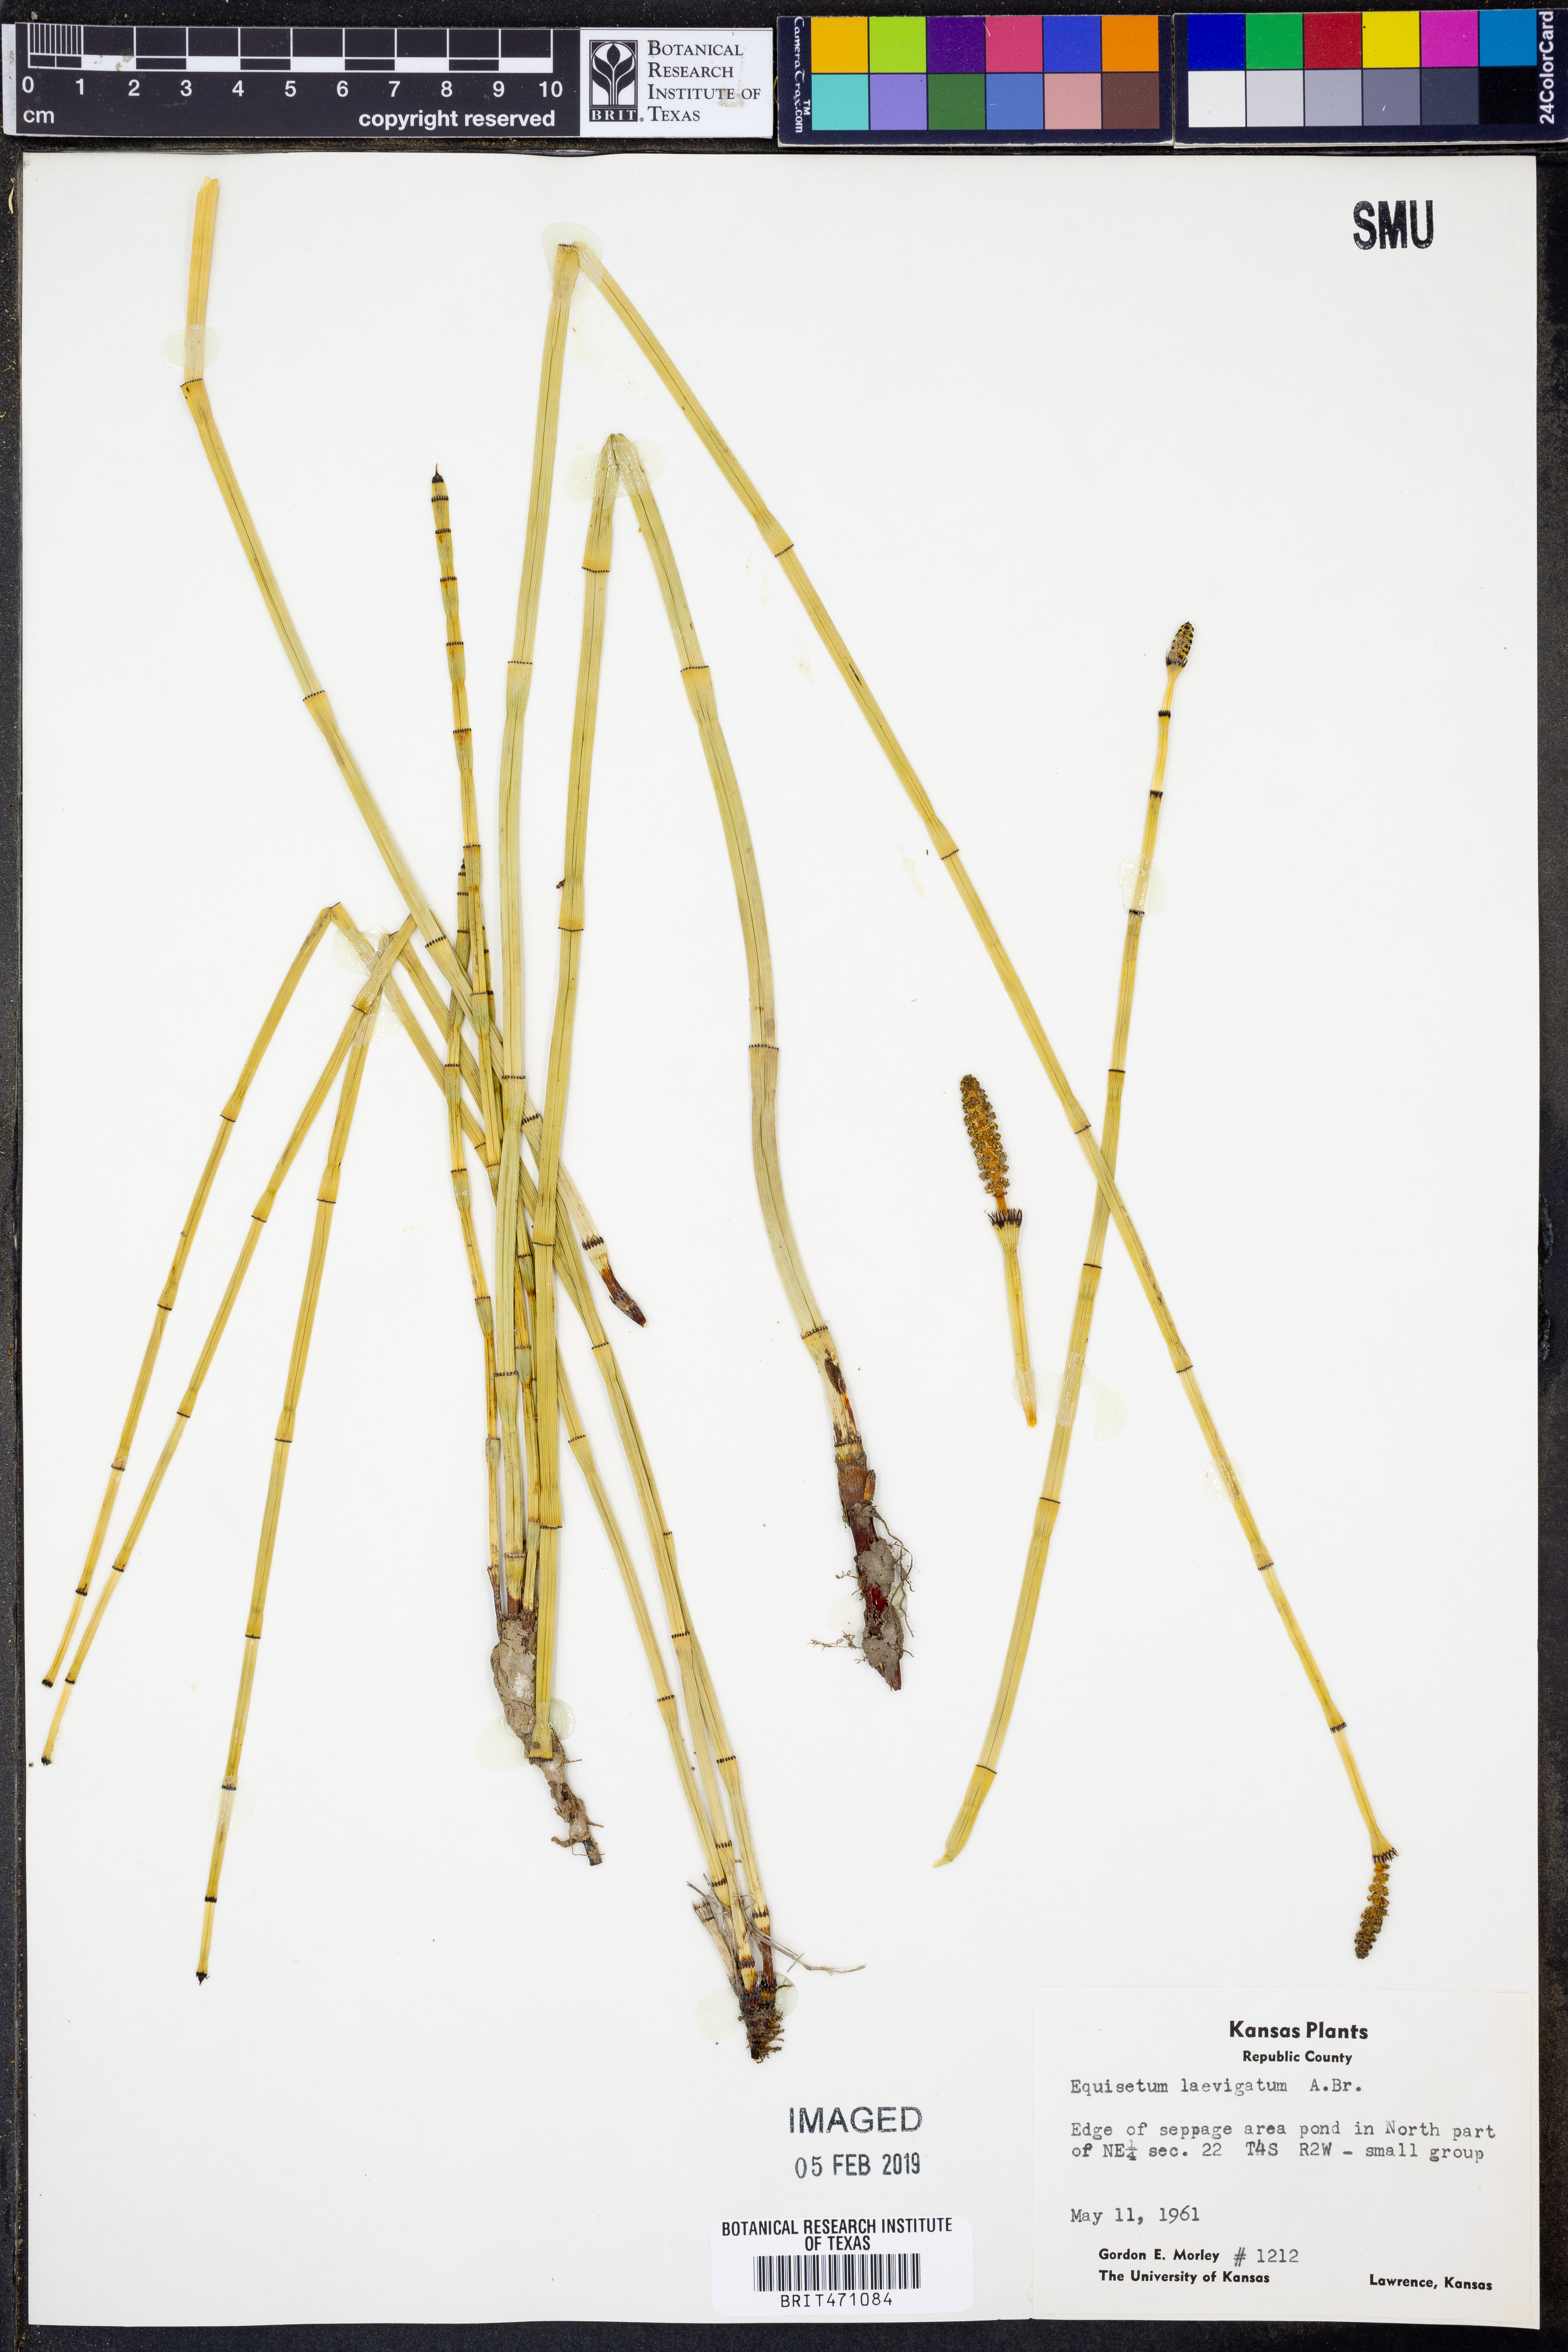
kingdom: Plantae
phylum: Tracheophyta
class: Polypodiopsida
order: Equisetales
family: Equisetaceae
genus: Equisetum
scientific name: Equisetum laevigatum
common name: Smooth scouring-rush
